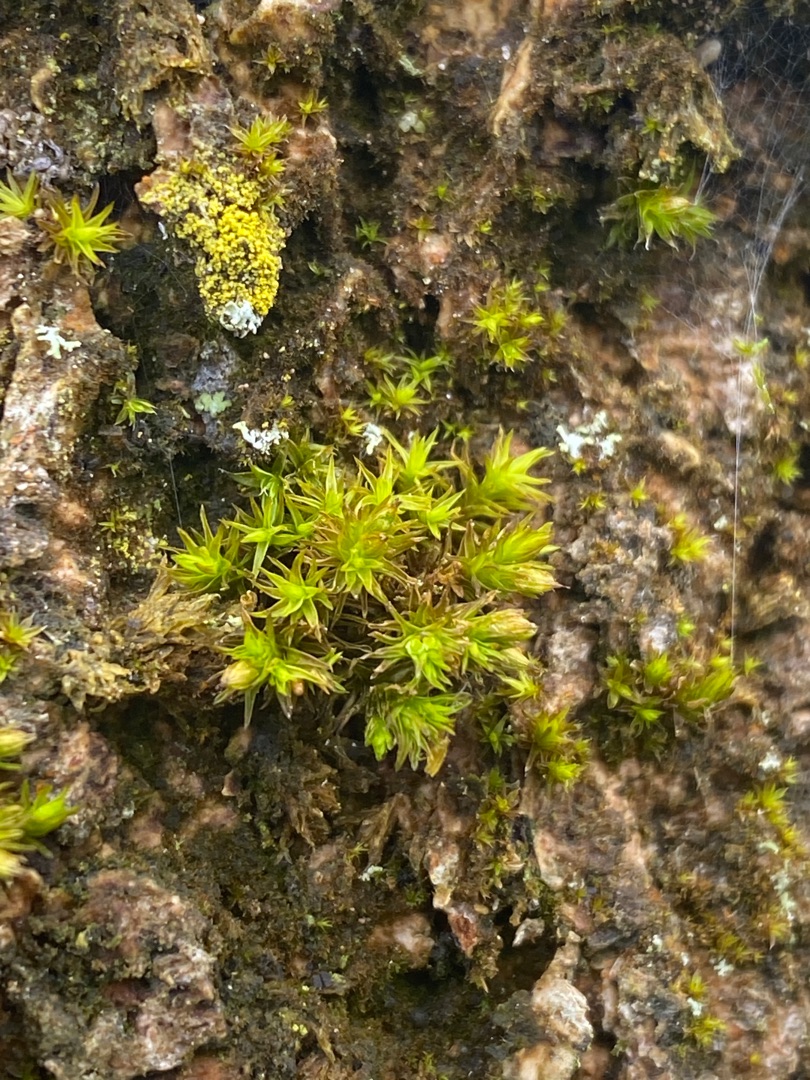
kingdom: Plantae
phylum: Bryophyta
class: Bryopsida
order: Orthotrichales
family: Orthotrichaceae
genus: Lewinskya
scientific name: Lewinskya affinis
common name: Almindelig furehætte
